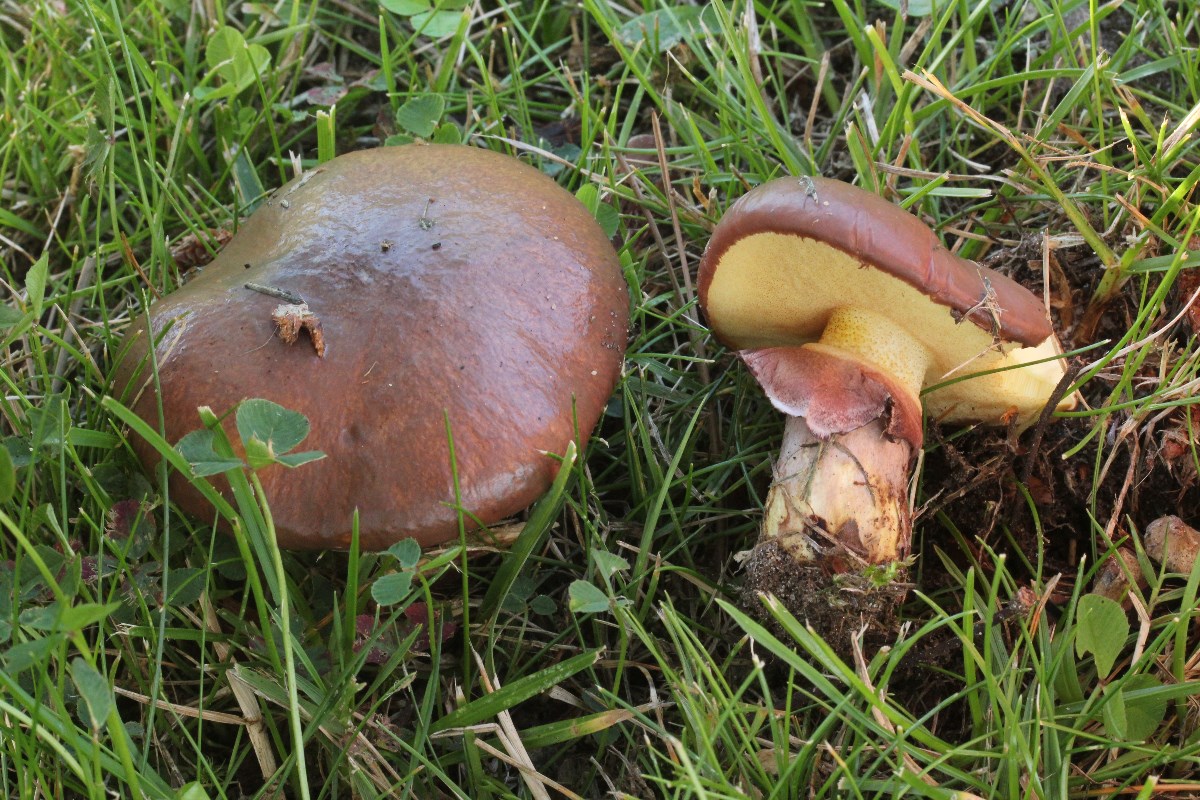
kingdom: Fungi
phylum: Basidiomycota
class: Agaricomycetes
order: Boletales
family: Suillaceae
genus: Suillus
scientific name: Suillus luteus
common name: brungul slimrørhat
